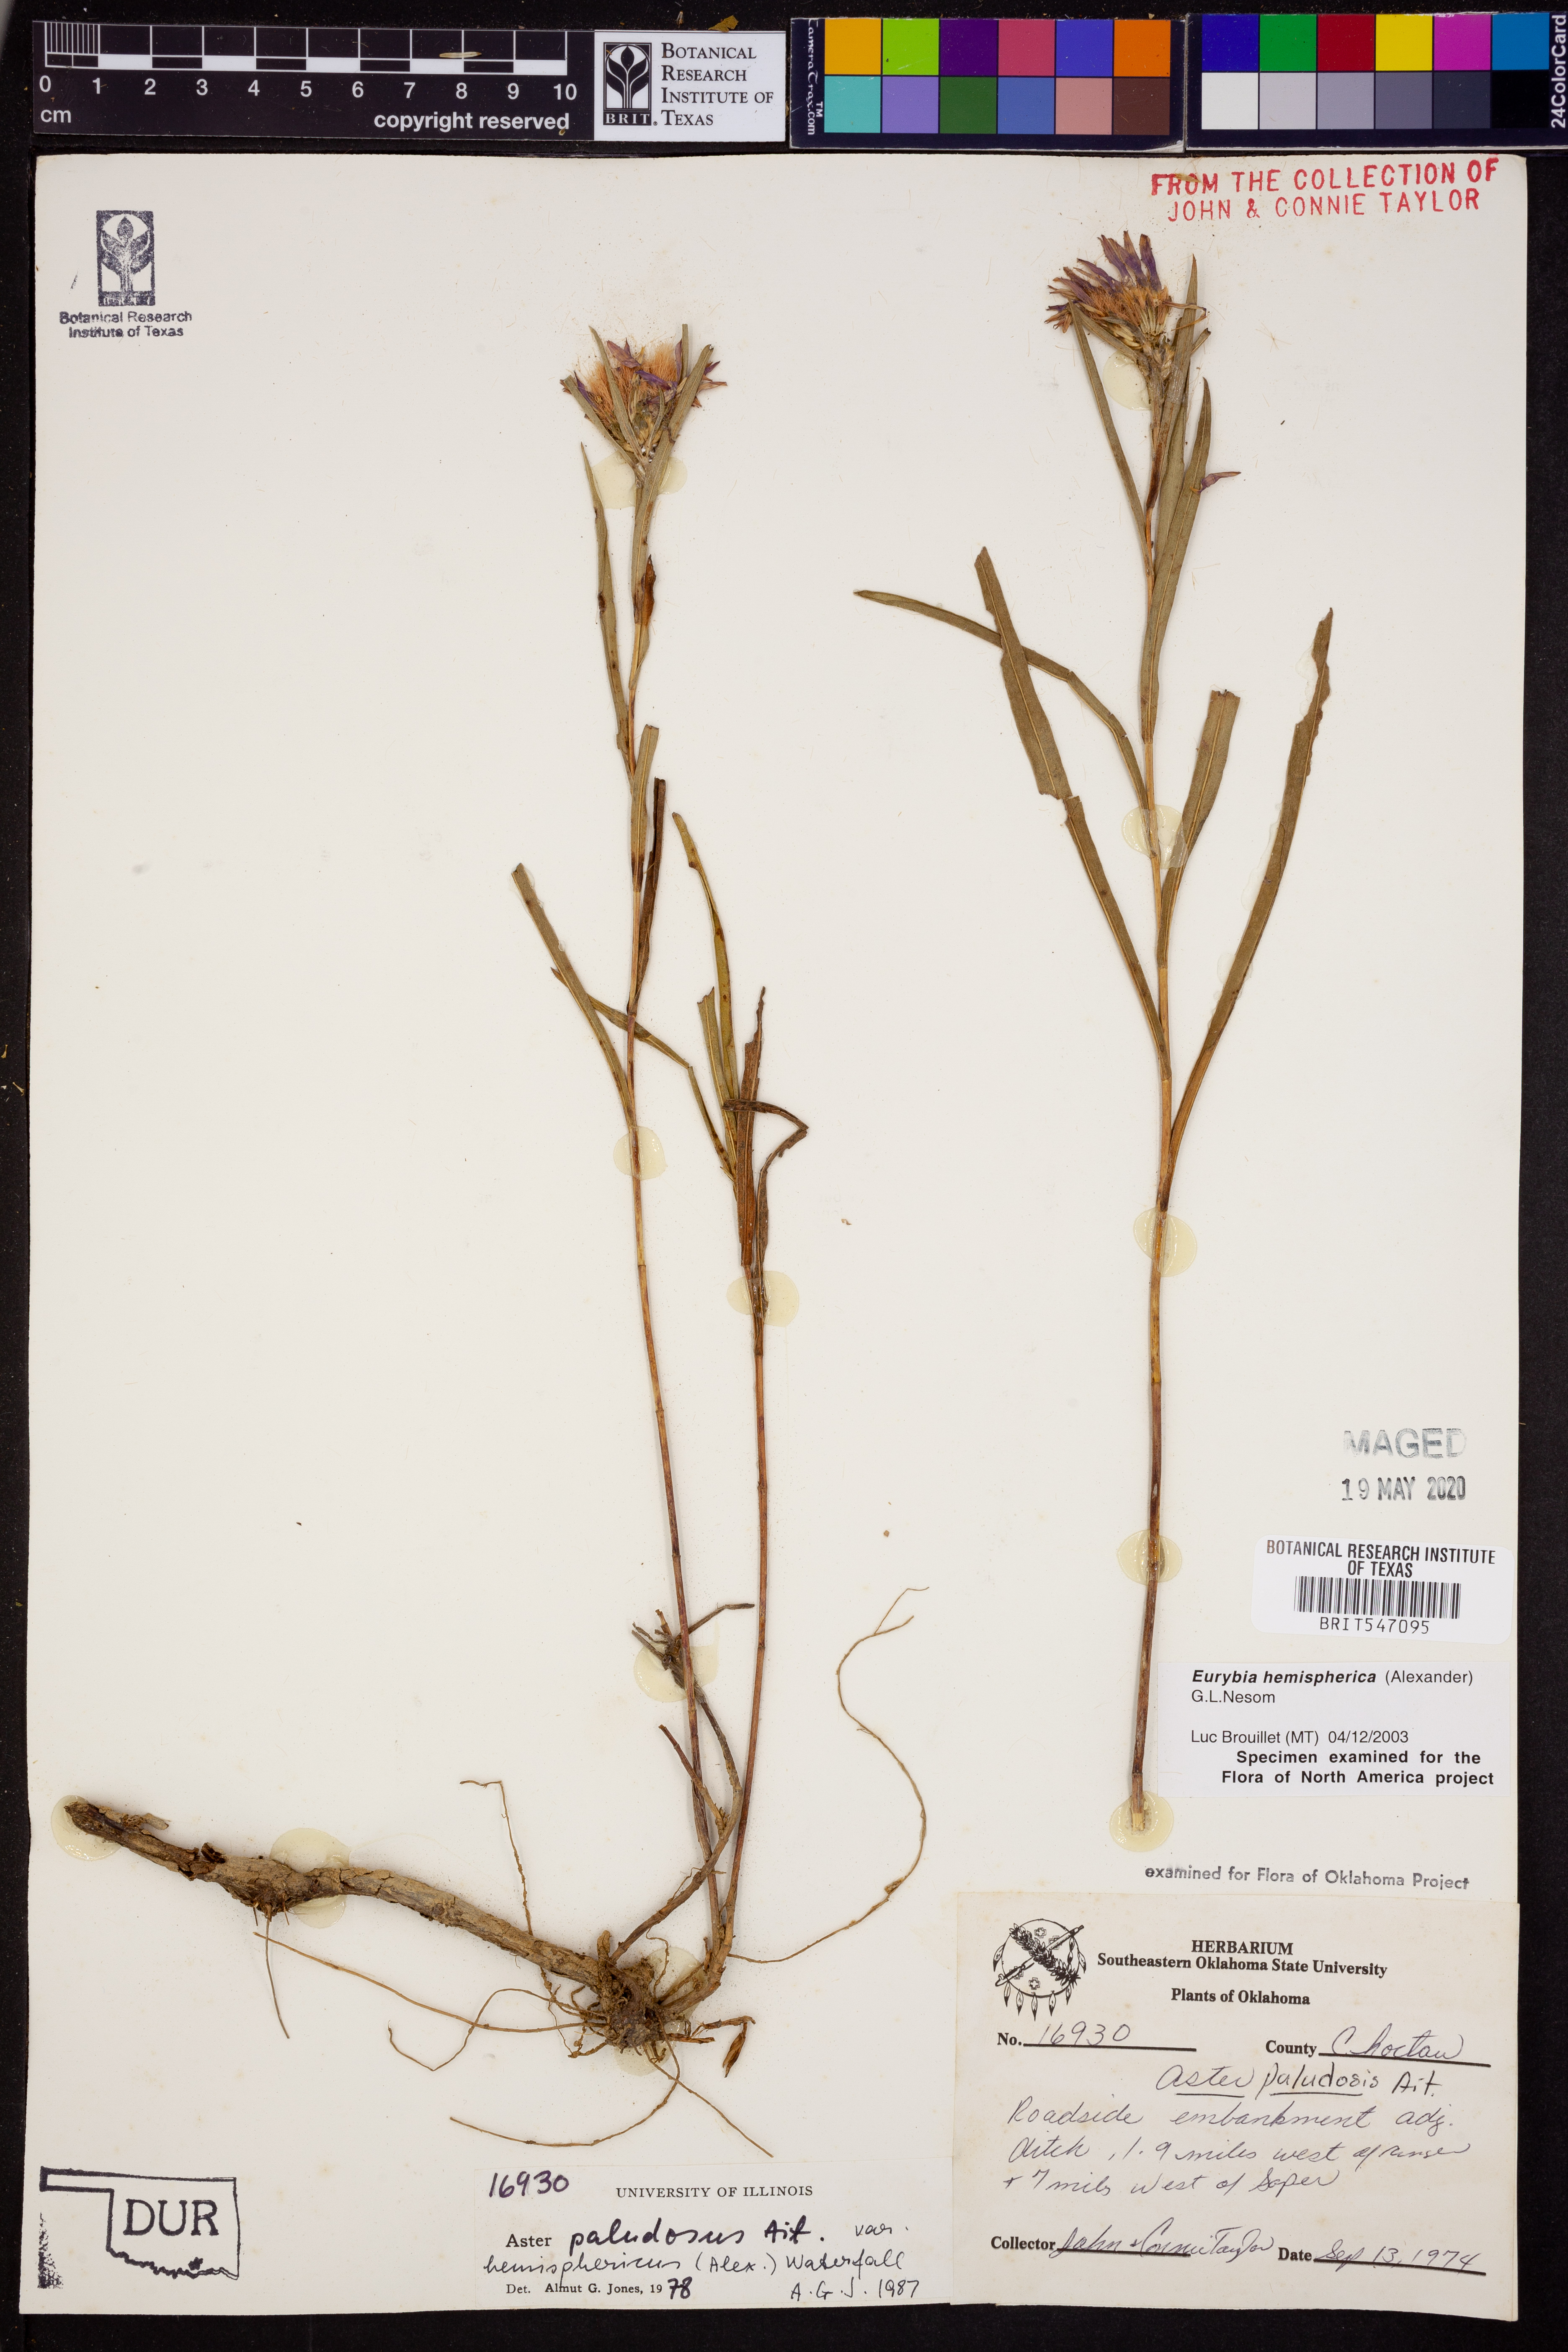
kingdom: Plantae
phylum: Tracheophyta
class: Magnoliopsida
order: Asterales
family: Asteraceae
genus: Eurybia
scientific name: Eurybia hemispherica
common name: Showy aster
